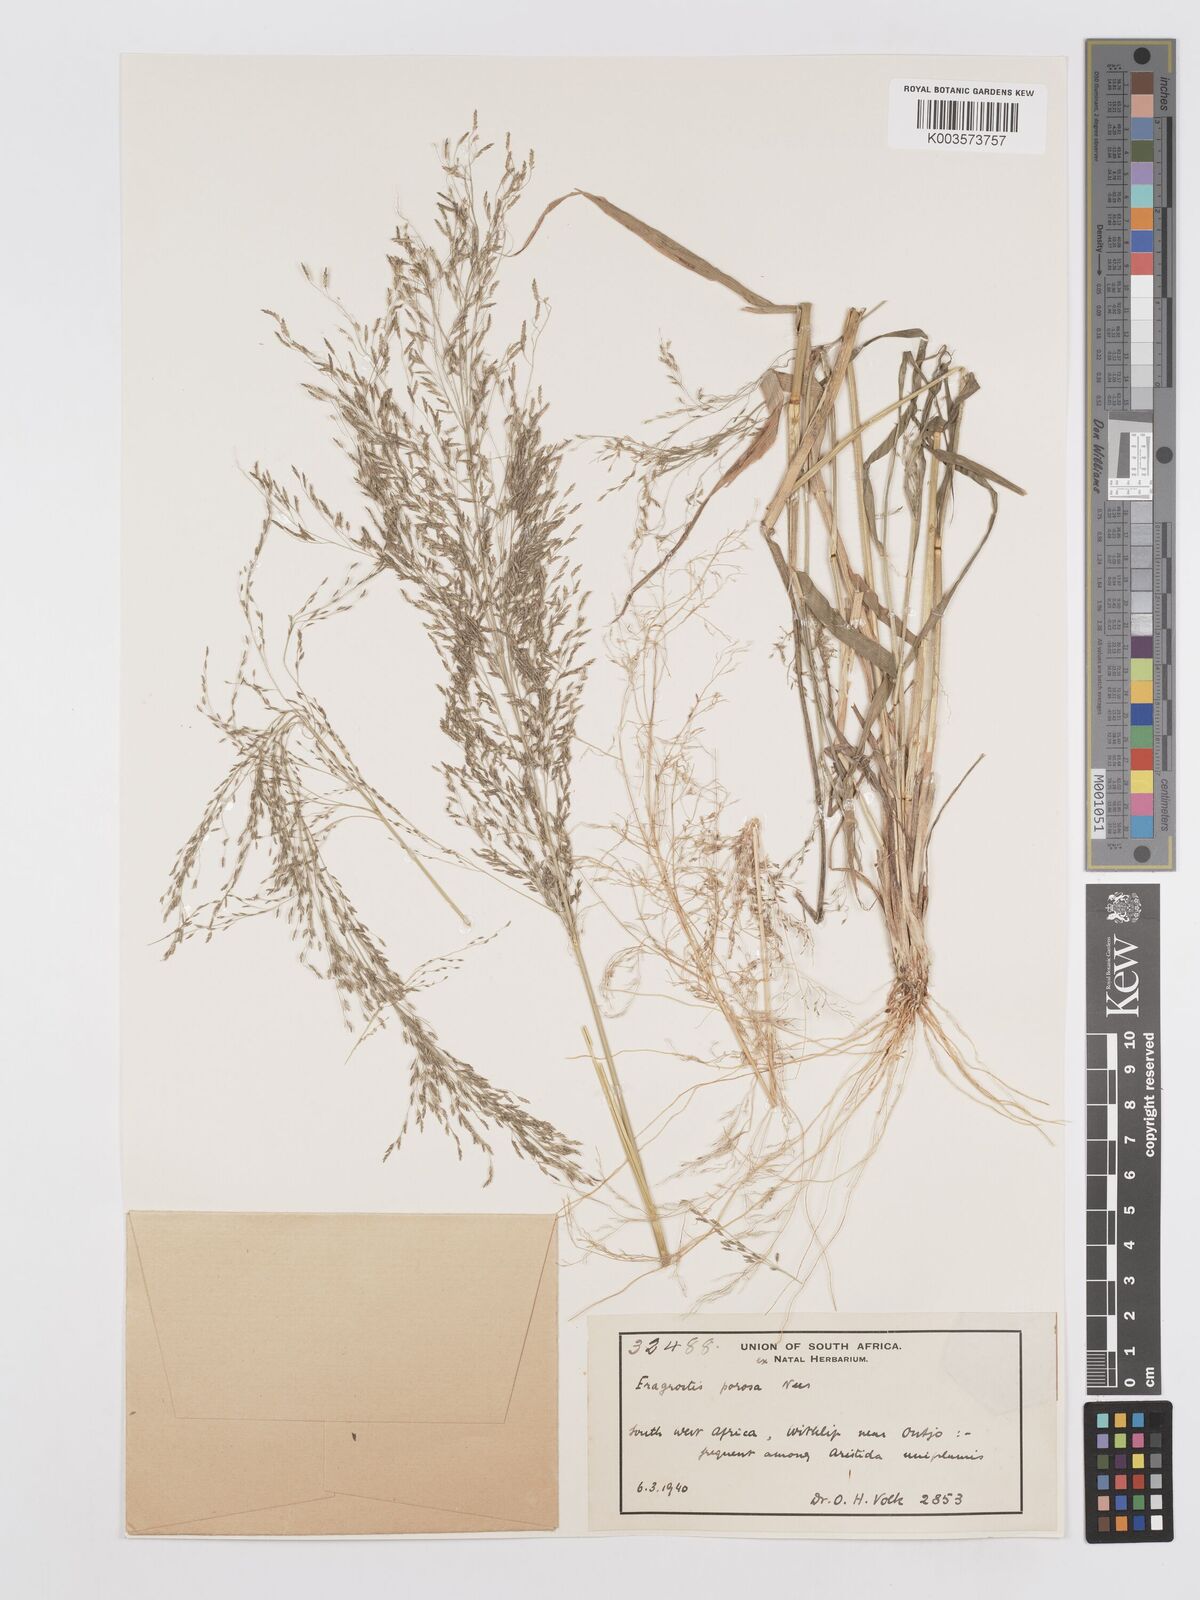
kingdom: Plantae
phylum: Tracheophyta
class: Liliopsida
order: Poales
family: Poaceae
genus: Eragrostis
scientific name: Eragrostis porosa
